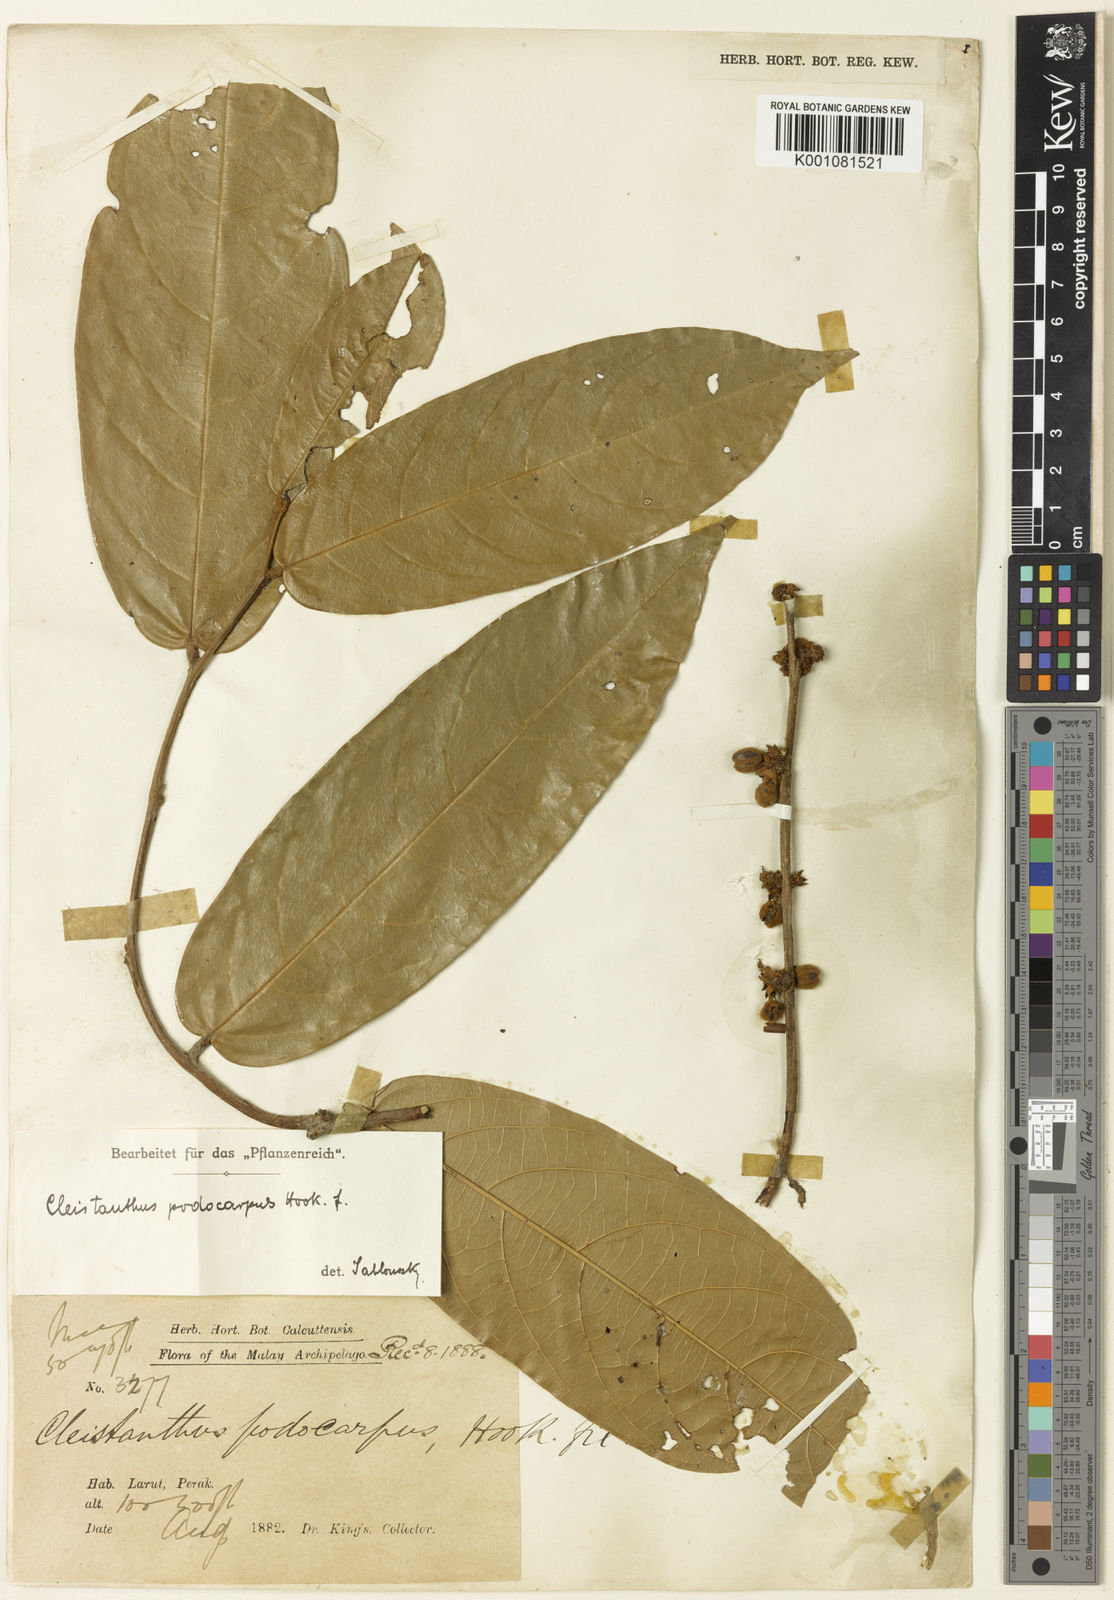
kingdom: Plantae
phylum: Tracheophyta
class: Magnoliopsida
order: Malpighiales
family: Phyllanthaceae
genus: Cleistanthus
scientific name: Cleistanthus podocarpus
